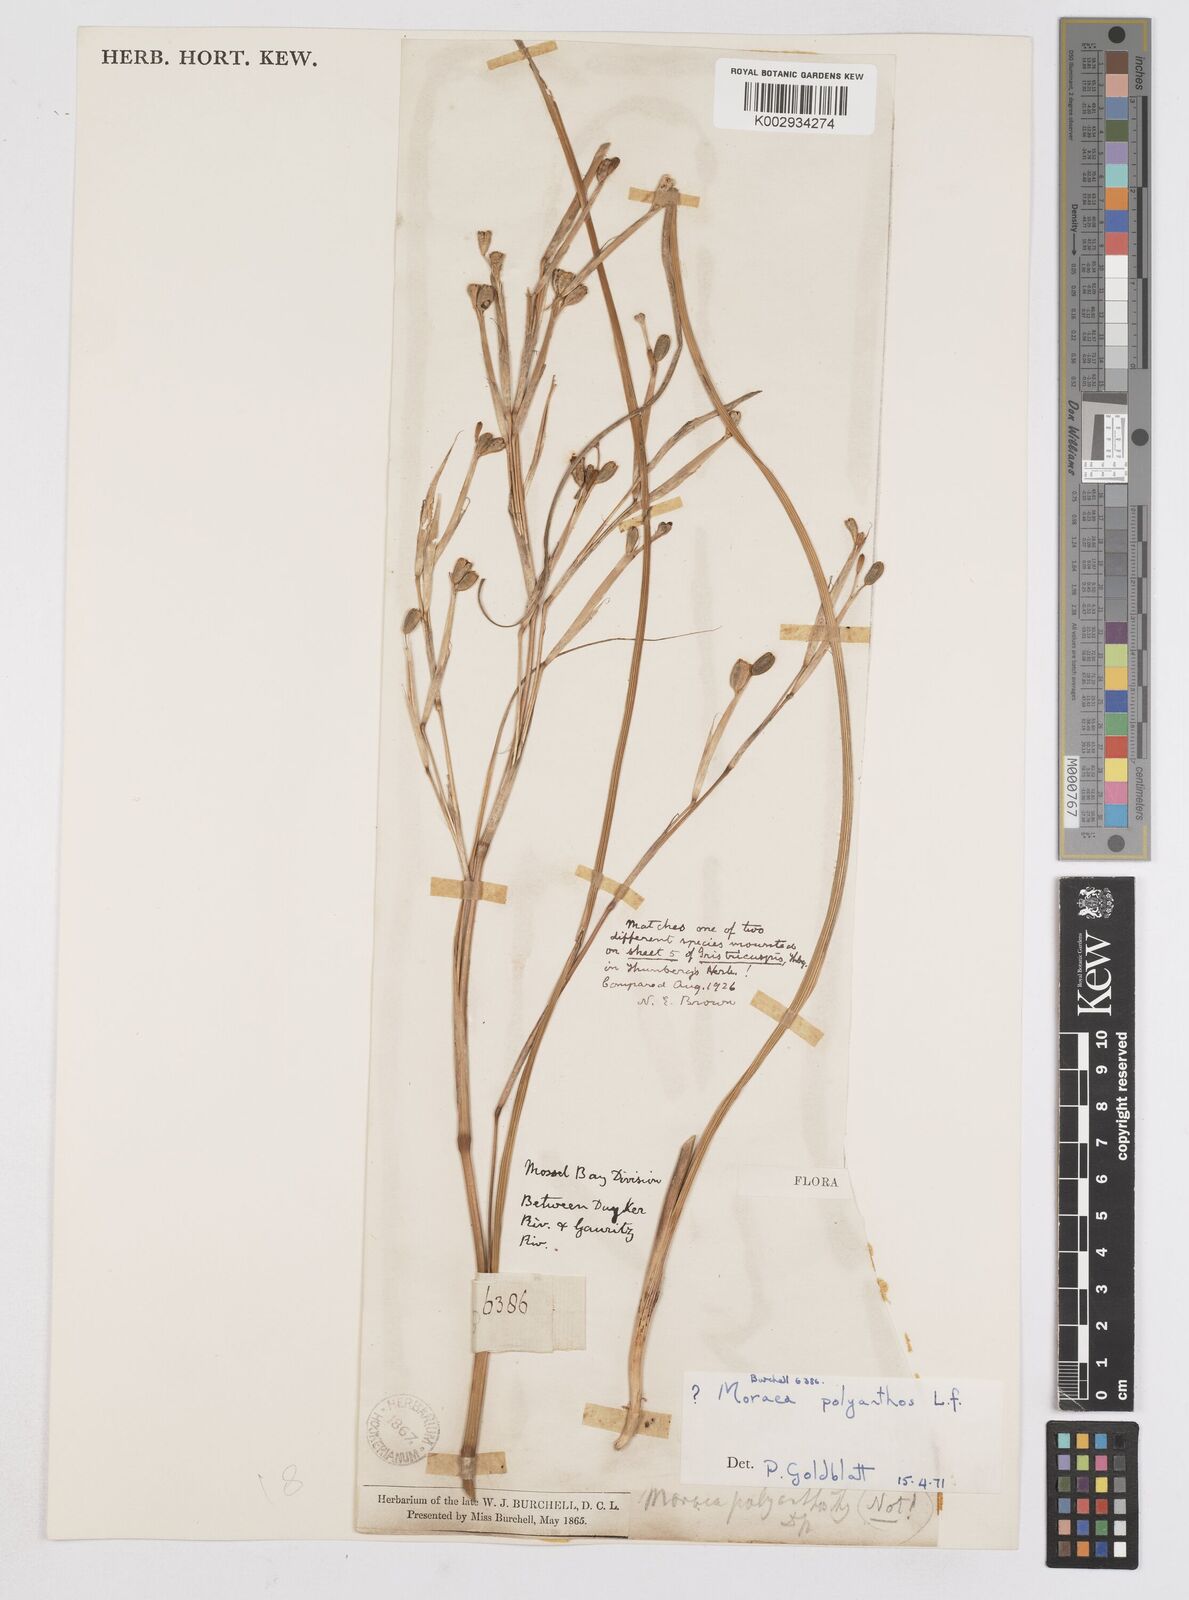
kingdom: Plantae
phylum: Tracheophyta
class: Liliopsida
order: Asparagales
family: Iridaceae
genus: Moraea
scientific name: Moraea bipartita
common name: Blue tulp
